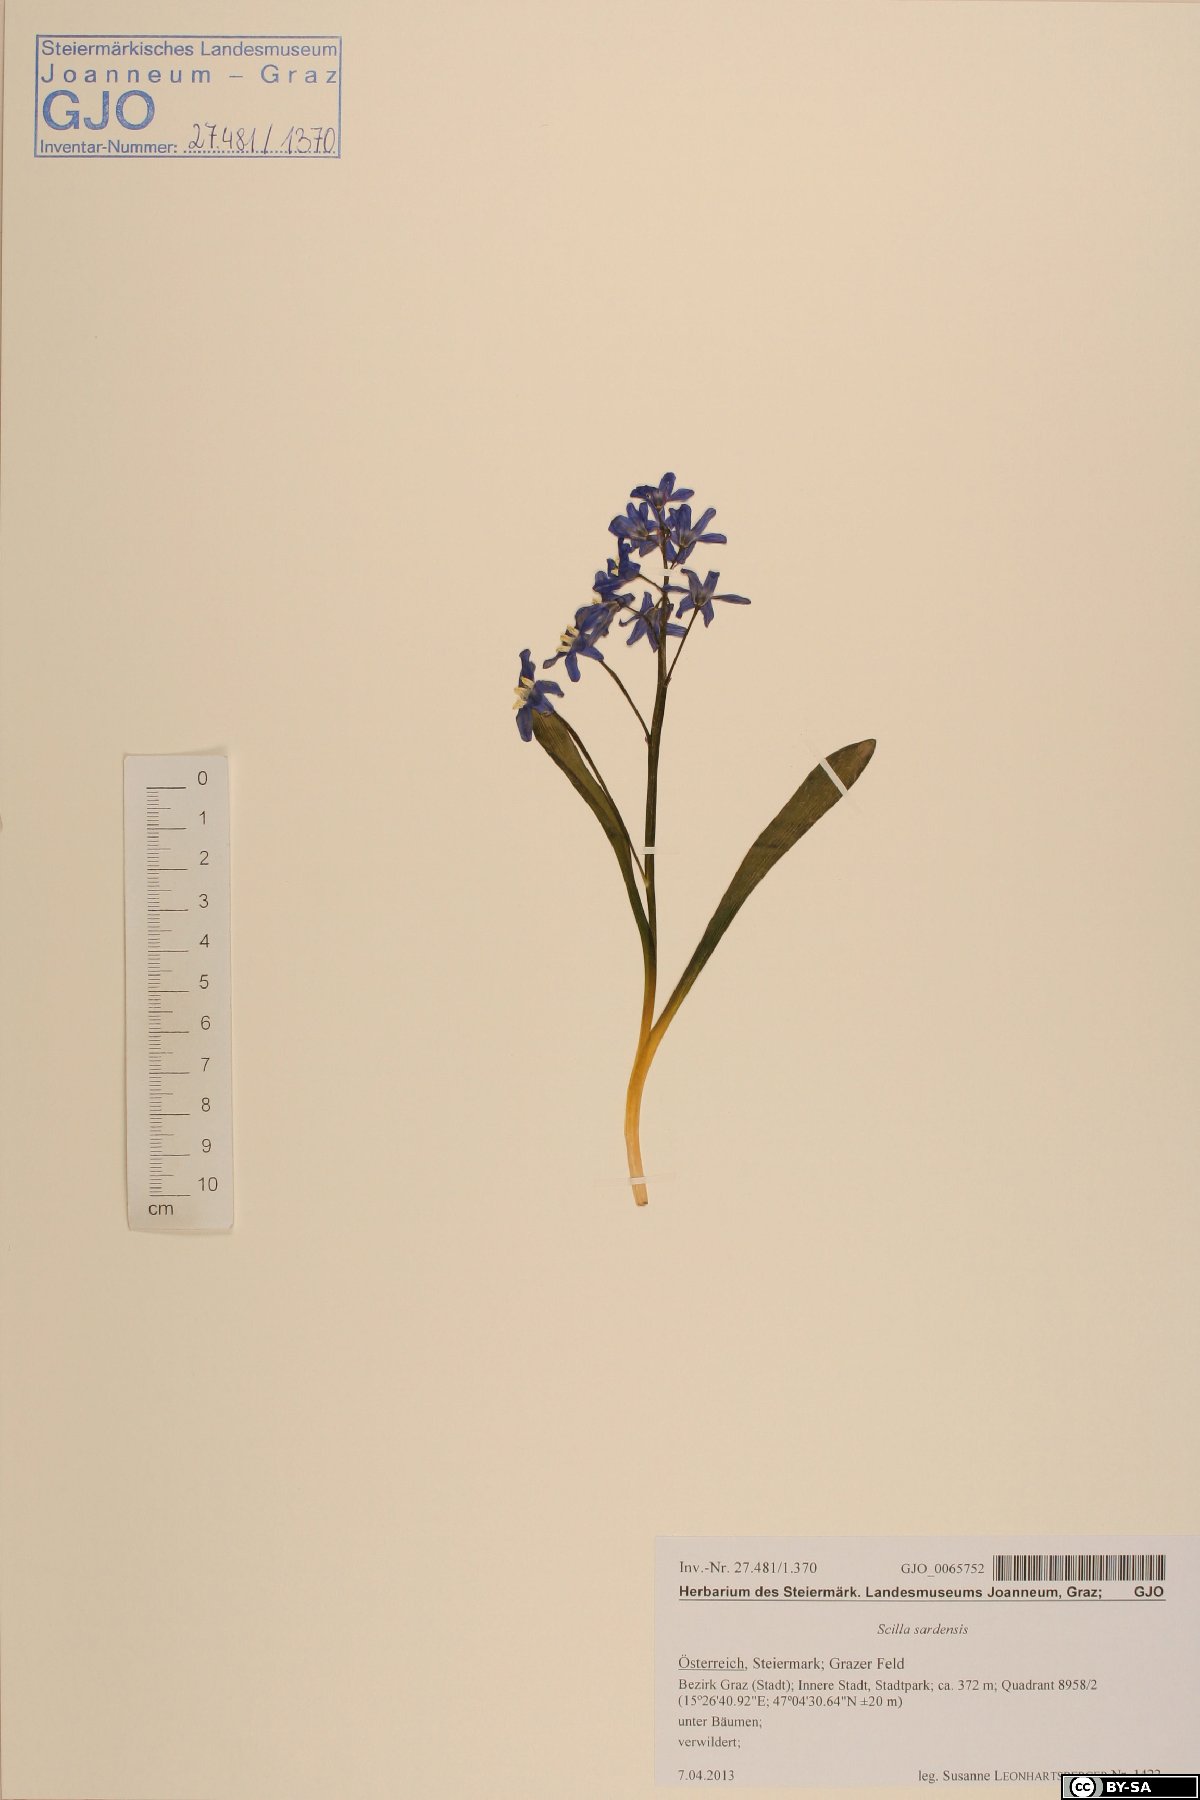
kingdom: Plantae
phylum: Tracheophyta
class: Liliopsida
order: Asparagales
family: Asparagaceae
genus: Scilla
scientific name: Scilla sardensis
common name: Lesser glory-of-the-snow
